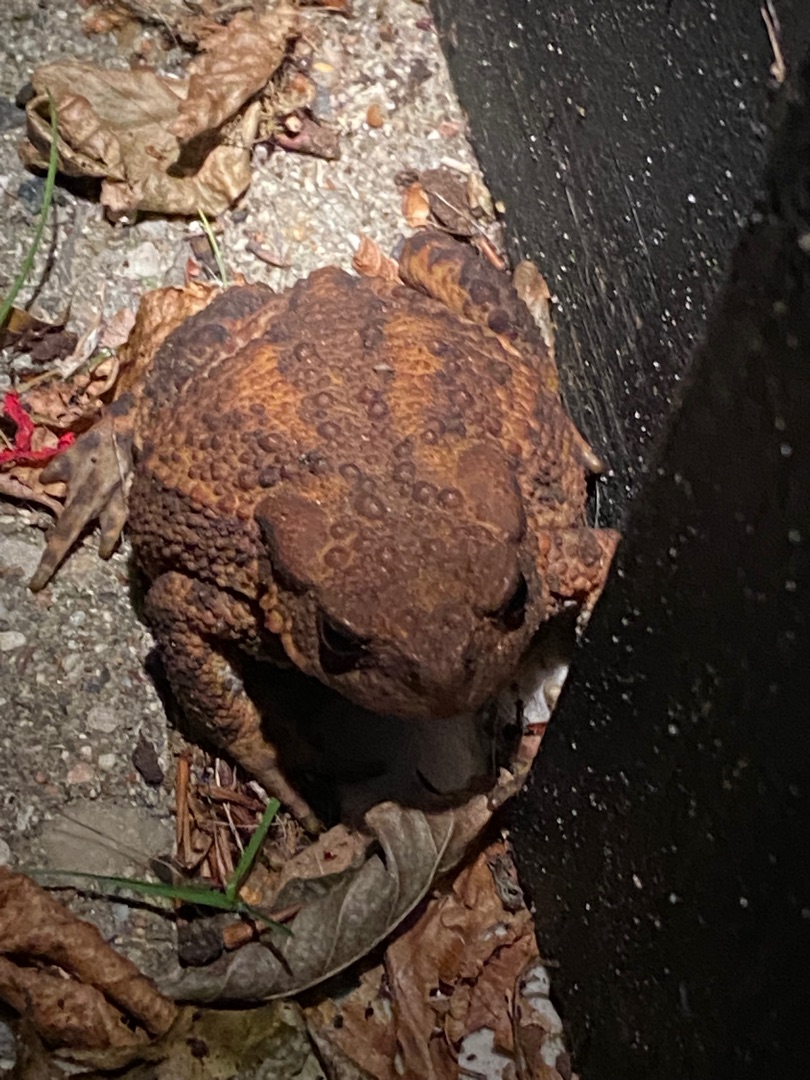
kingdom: Animalia
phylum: Chordata
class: Amphibia
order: Anura
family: Bufonidae
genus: Bufo
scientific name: Bufo bufo
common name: Skrubtudse
